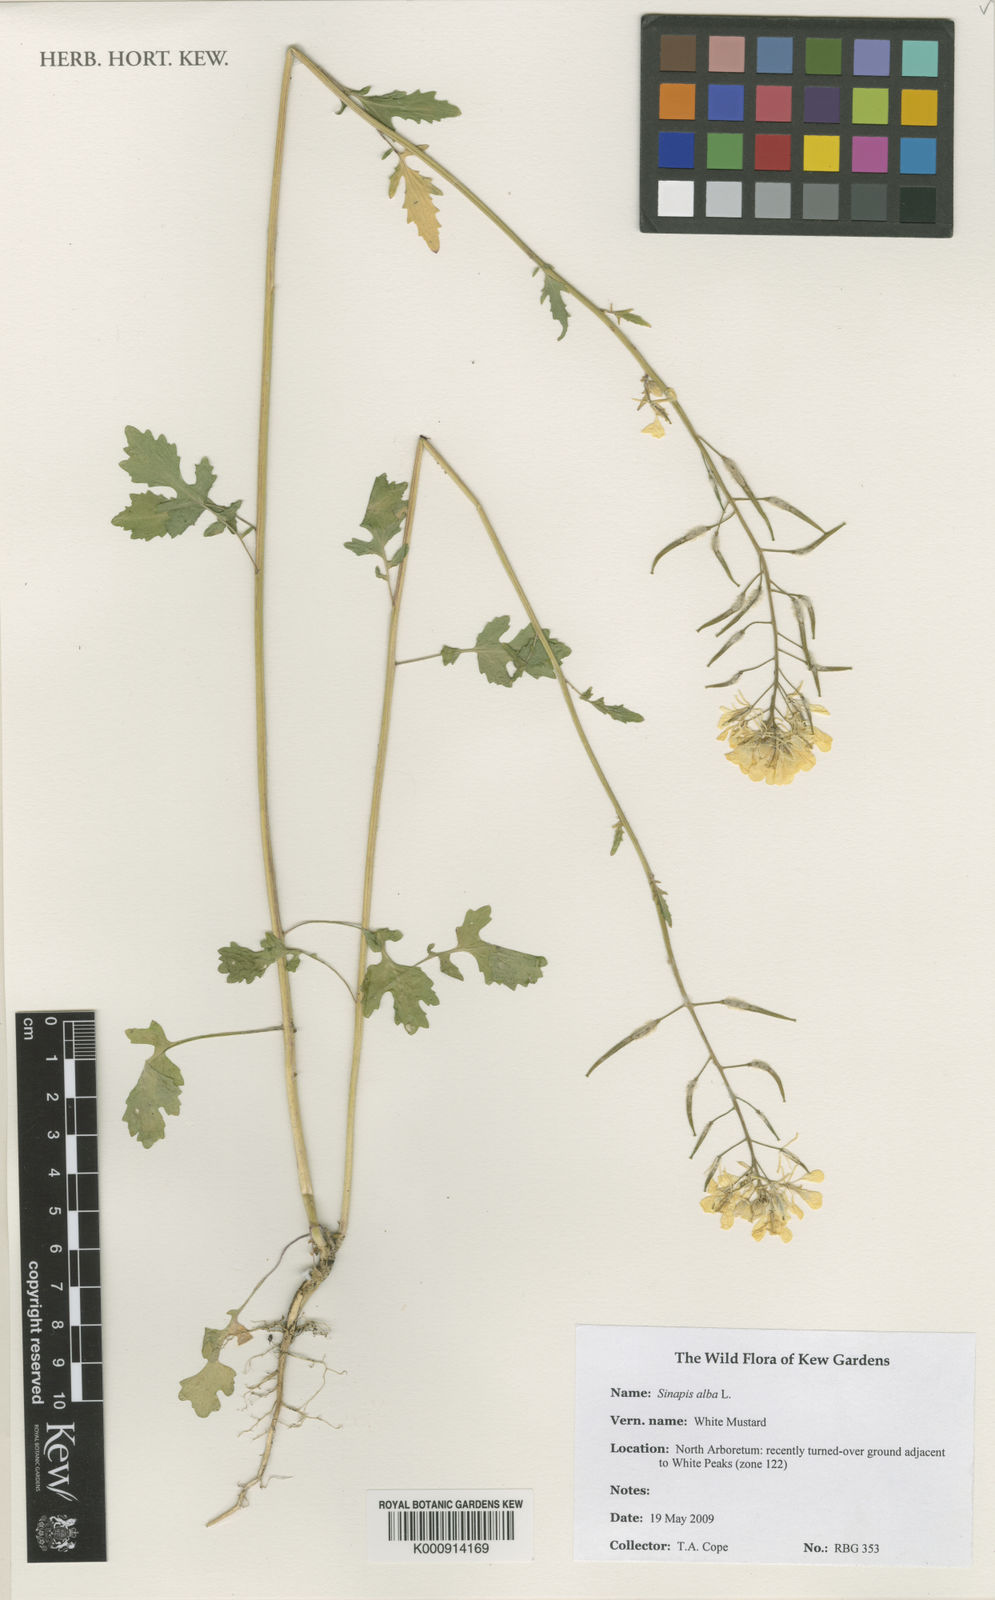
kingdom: Plantae
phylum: Tracheophyta
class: Magnoliopsida
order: Brassicales
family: Brassicaceae
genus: Sinapis
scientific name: Sinapis alba
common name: White mustard
